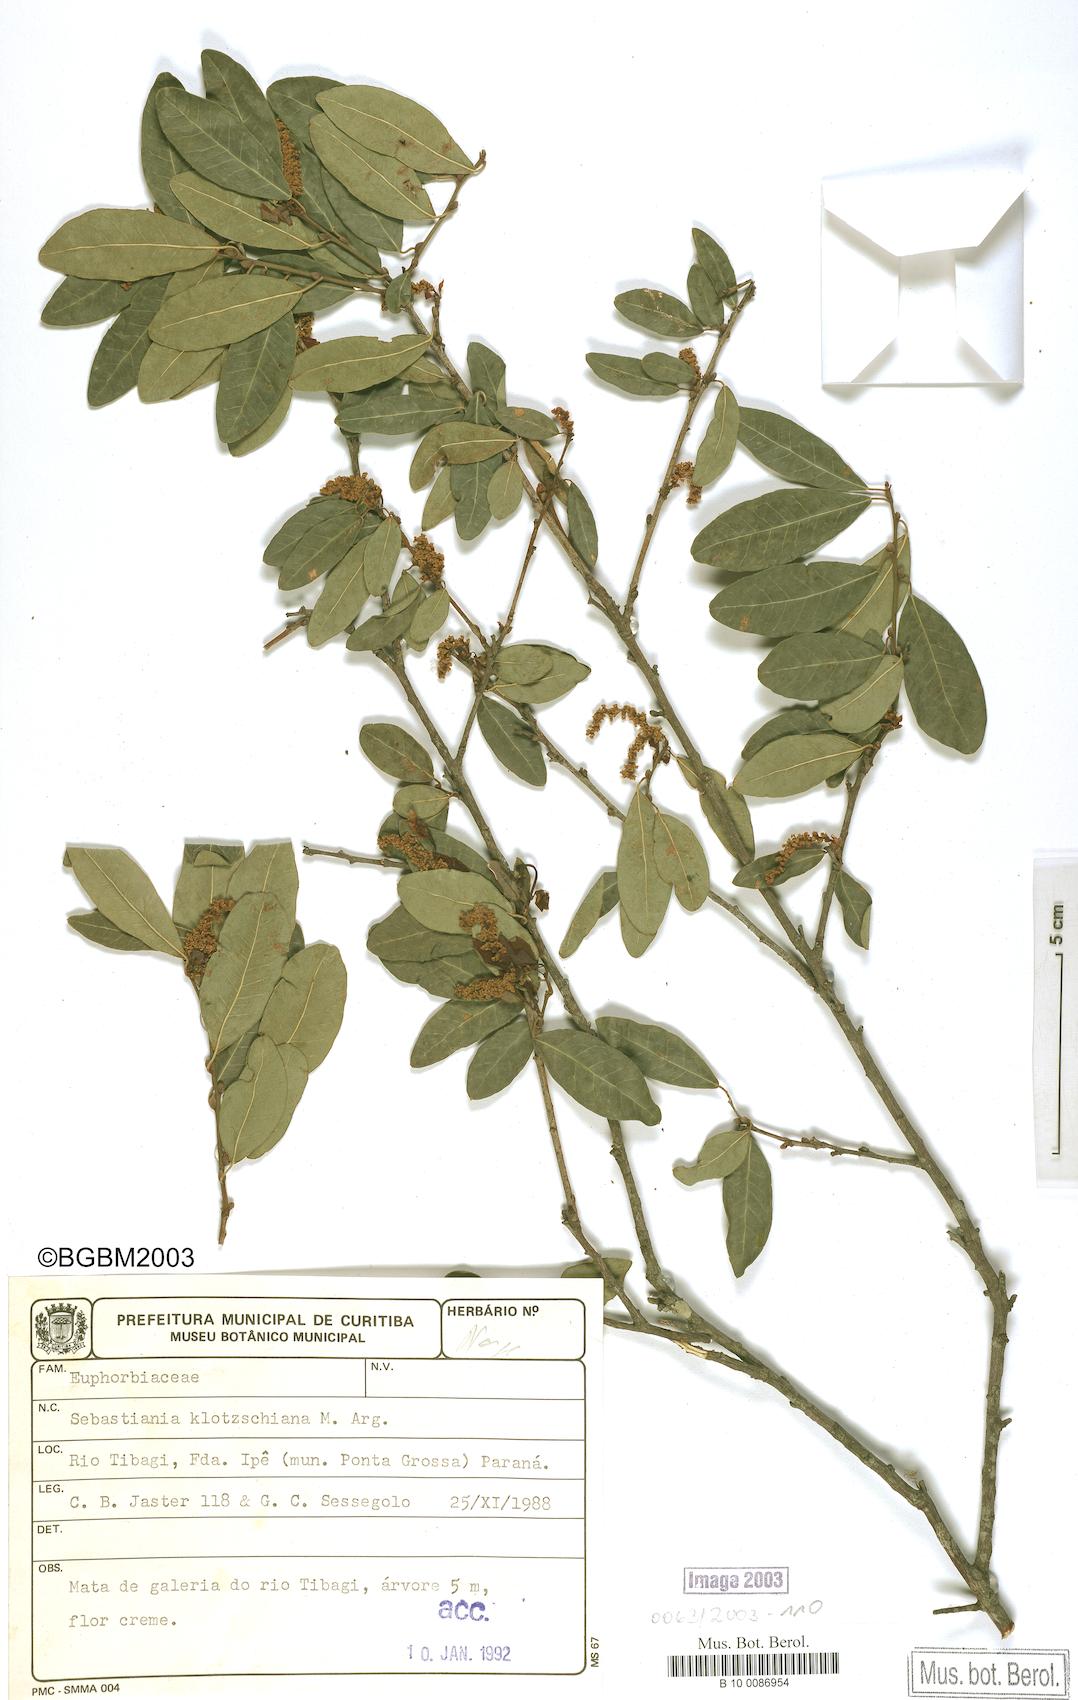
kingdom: Plantae
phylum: Tracheophyta
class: Magnoliopsida
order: Malpighiales
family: Euphorbiaceae
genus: Sebastiania
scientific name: Sebastiania klotzschiana
